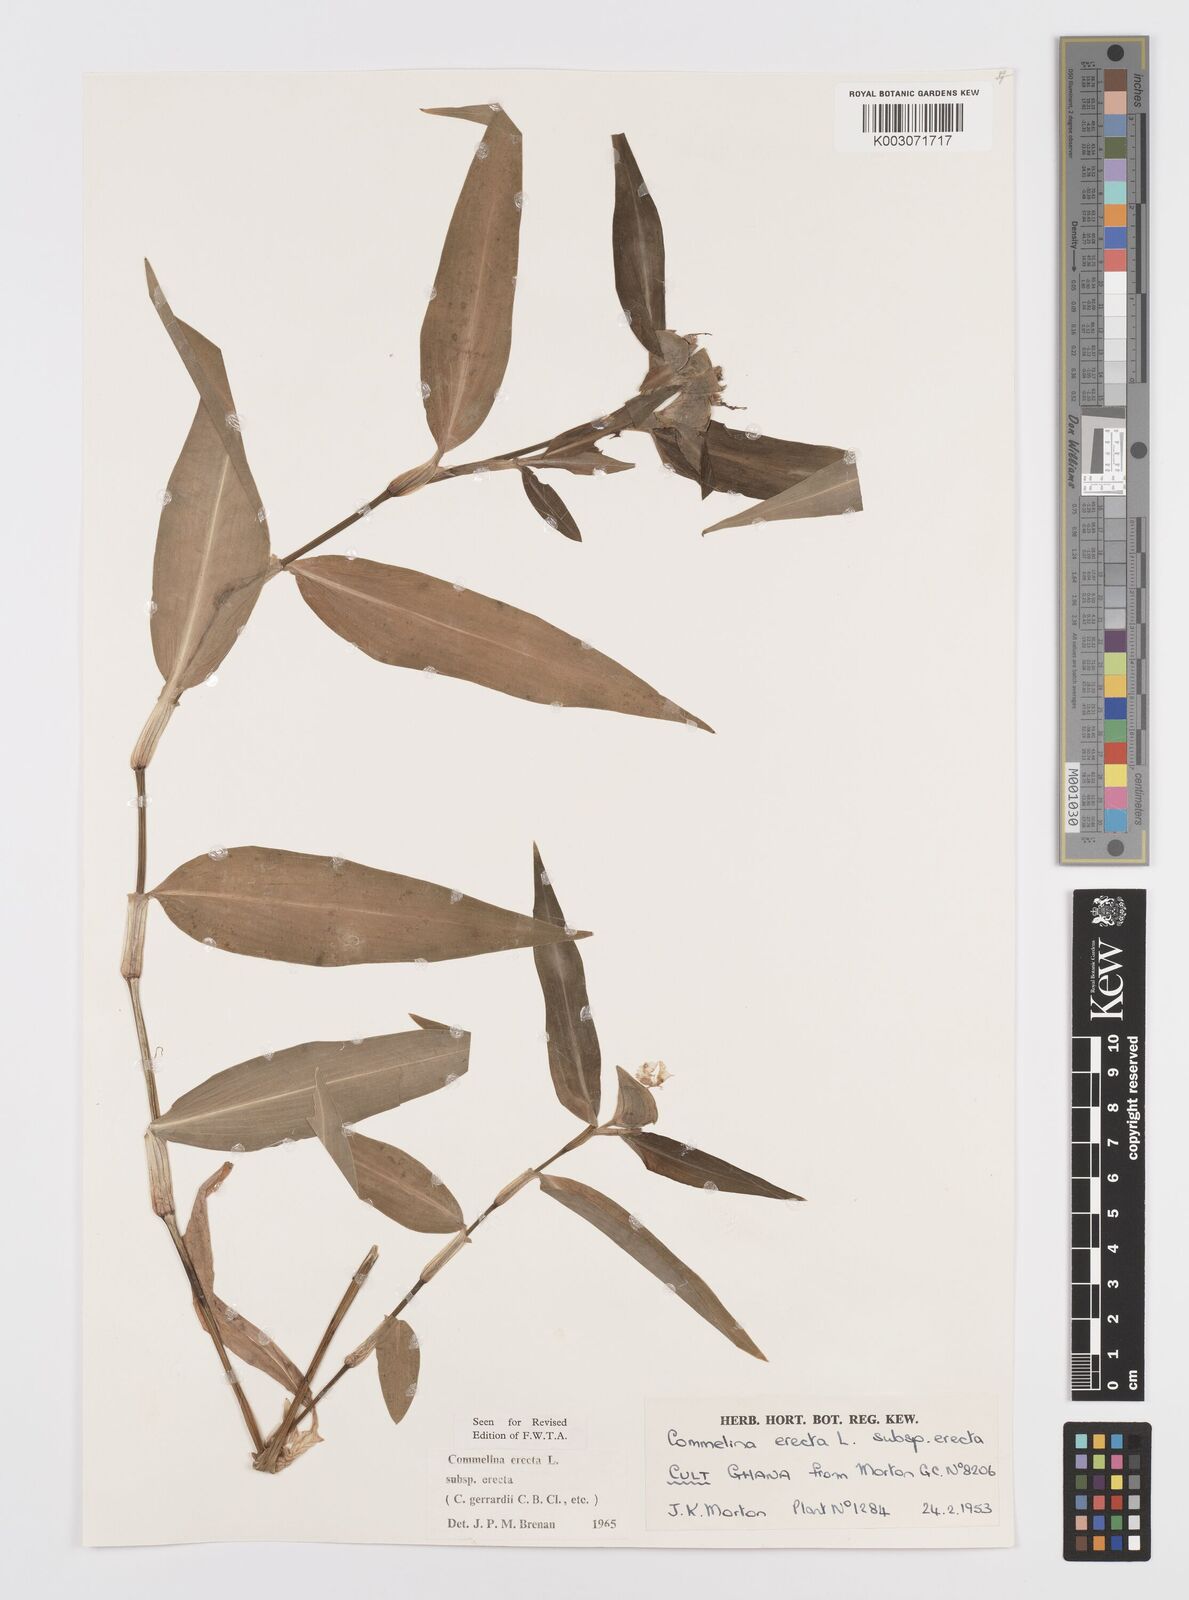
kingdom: Plantae
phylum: Tracheophyta
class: Liliopsida
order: Commelinales
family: Commelinaceae
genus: Commelina
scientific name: Commelina erecta
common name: Blousel blommetjie
